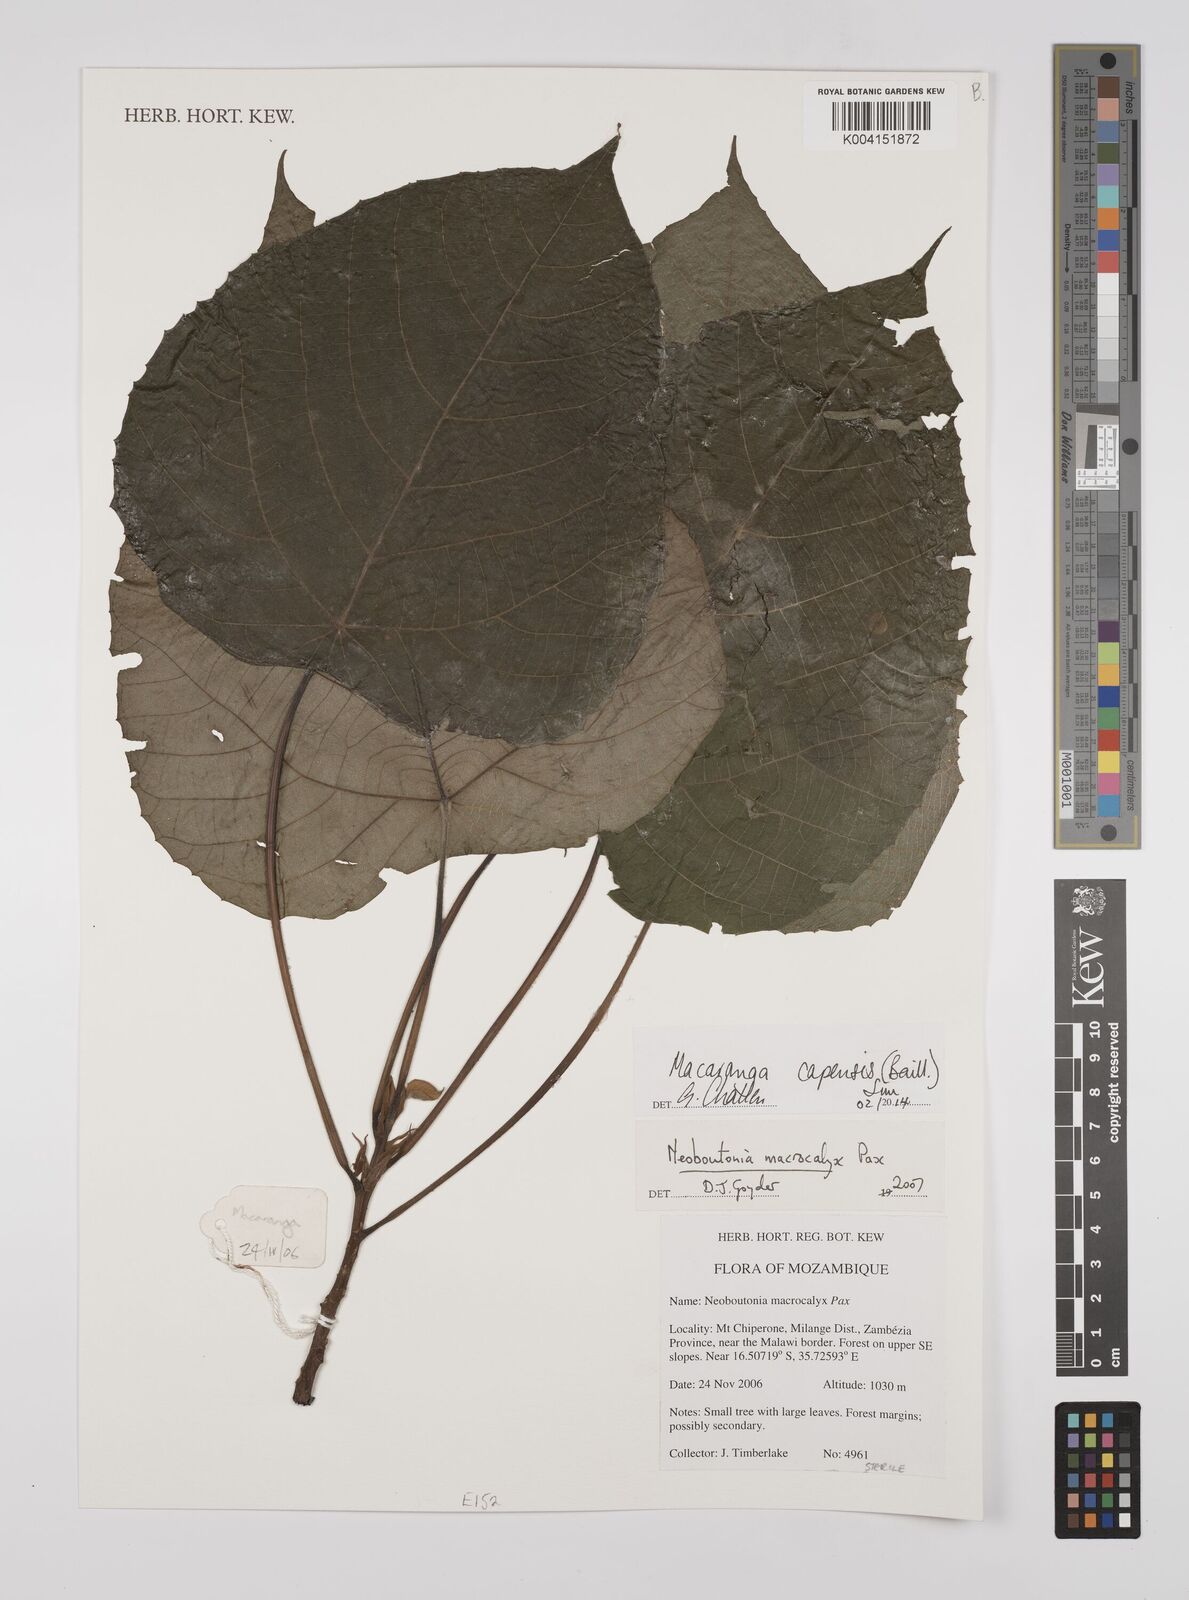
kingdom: Plantae
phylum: Tracheophyta
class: Magnoliopsida
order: Malpighiales
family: Euphorbiaceae
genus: Macaranga
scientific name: Macaranga capensis
